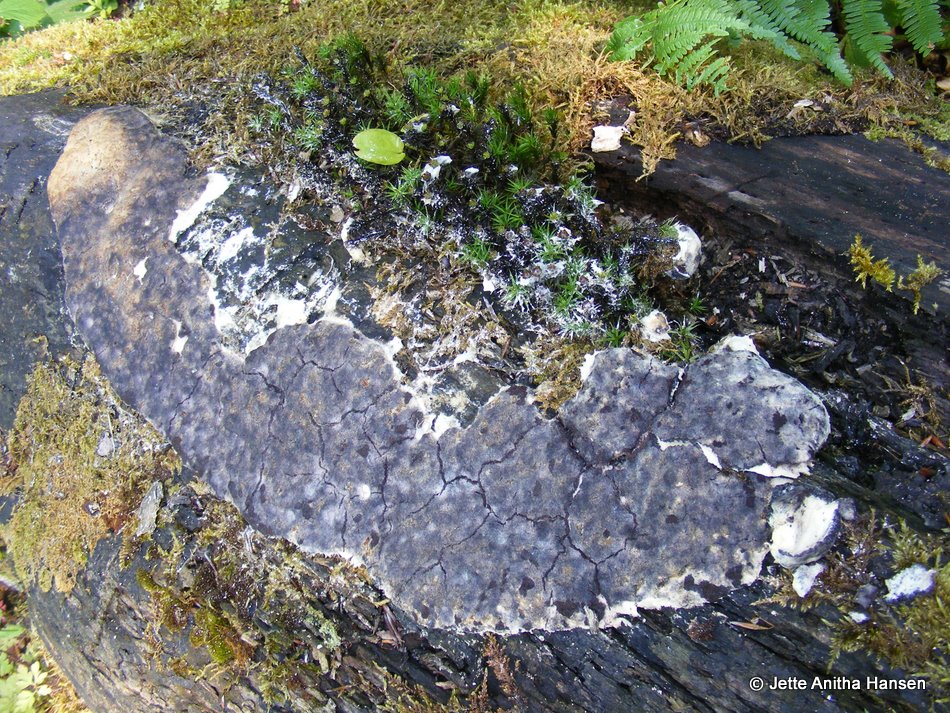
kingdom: Fungi
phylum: Ascomycota
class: Sordariomycetes
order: Hypocreales
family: Bionectriaceae
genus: Nectriopsis
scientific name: Nectriopsis violacea
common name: violet snyltespind
